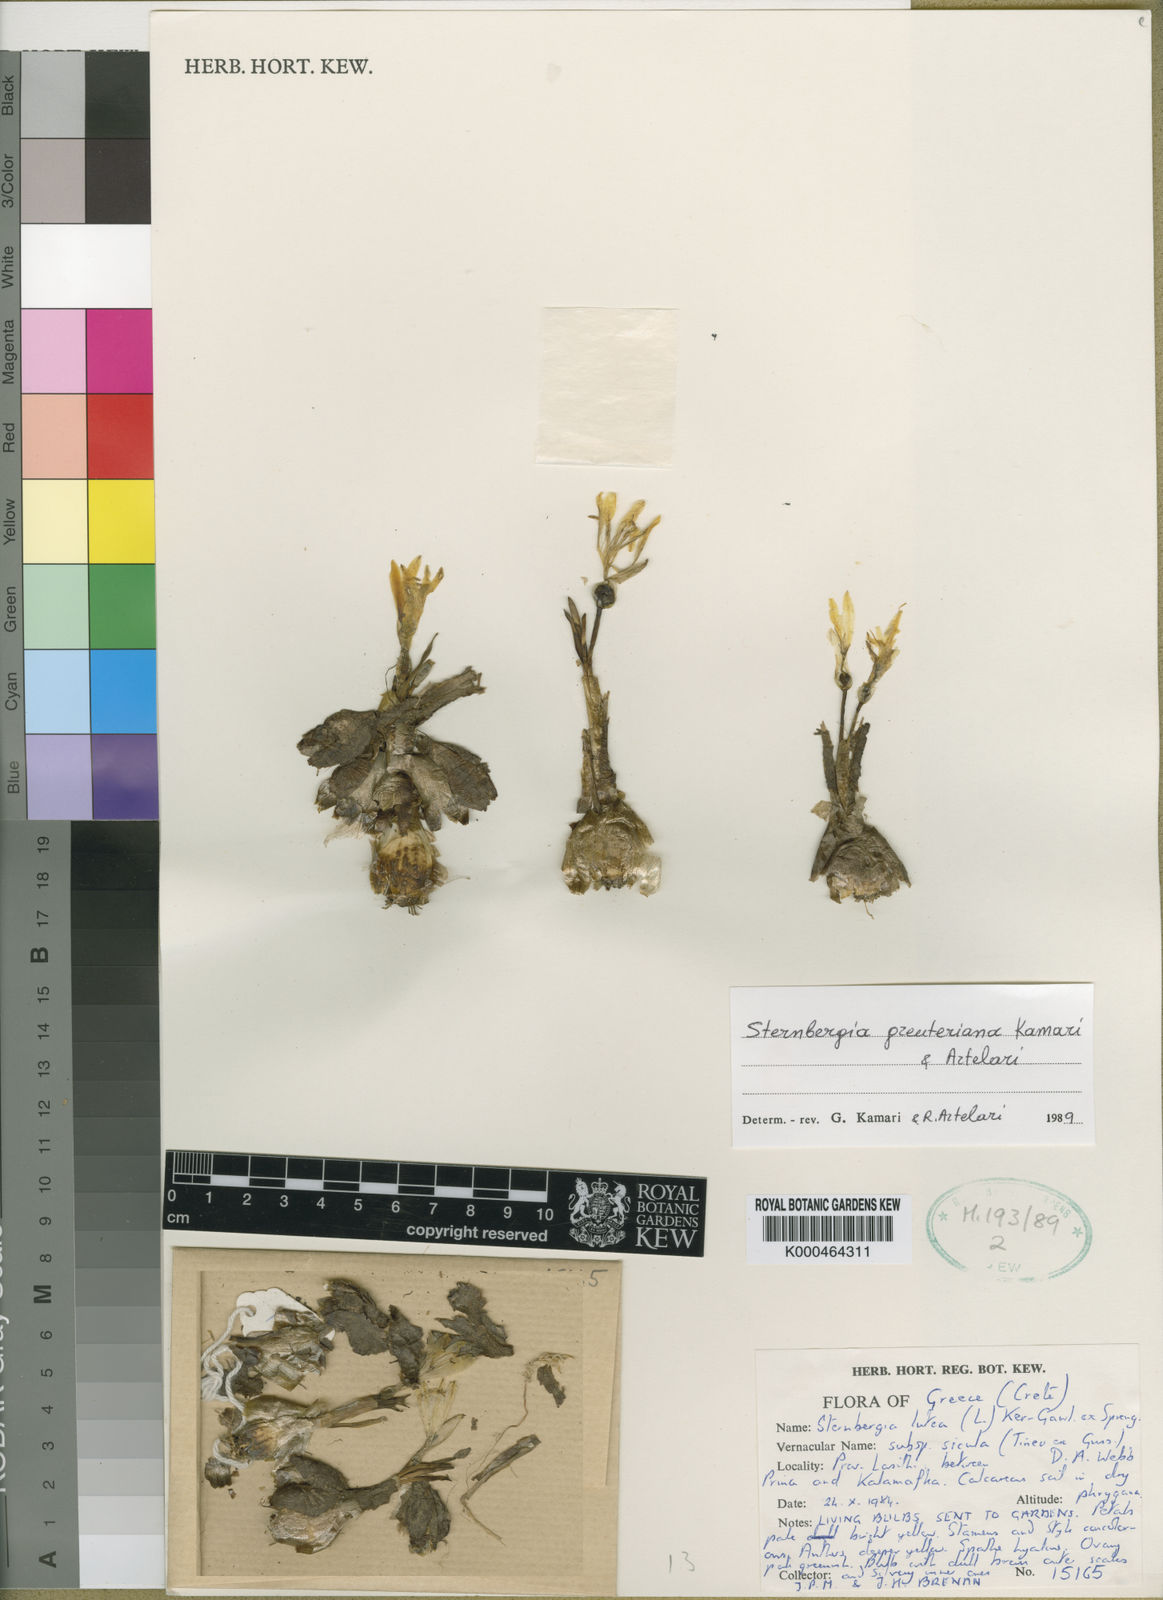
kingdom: Plantae
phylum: Tracheophyta
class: Liliopsida
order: Asparagales
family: Amaryllidaceae
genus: Sternbergia
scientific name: Sternbergia lutea
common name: Winter daffodil
